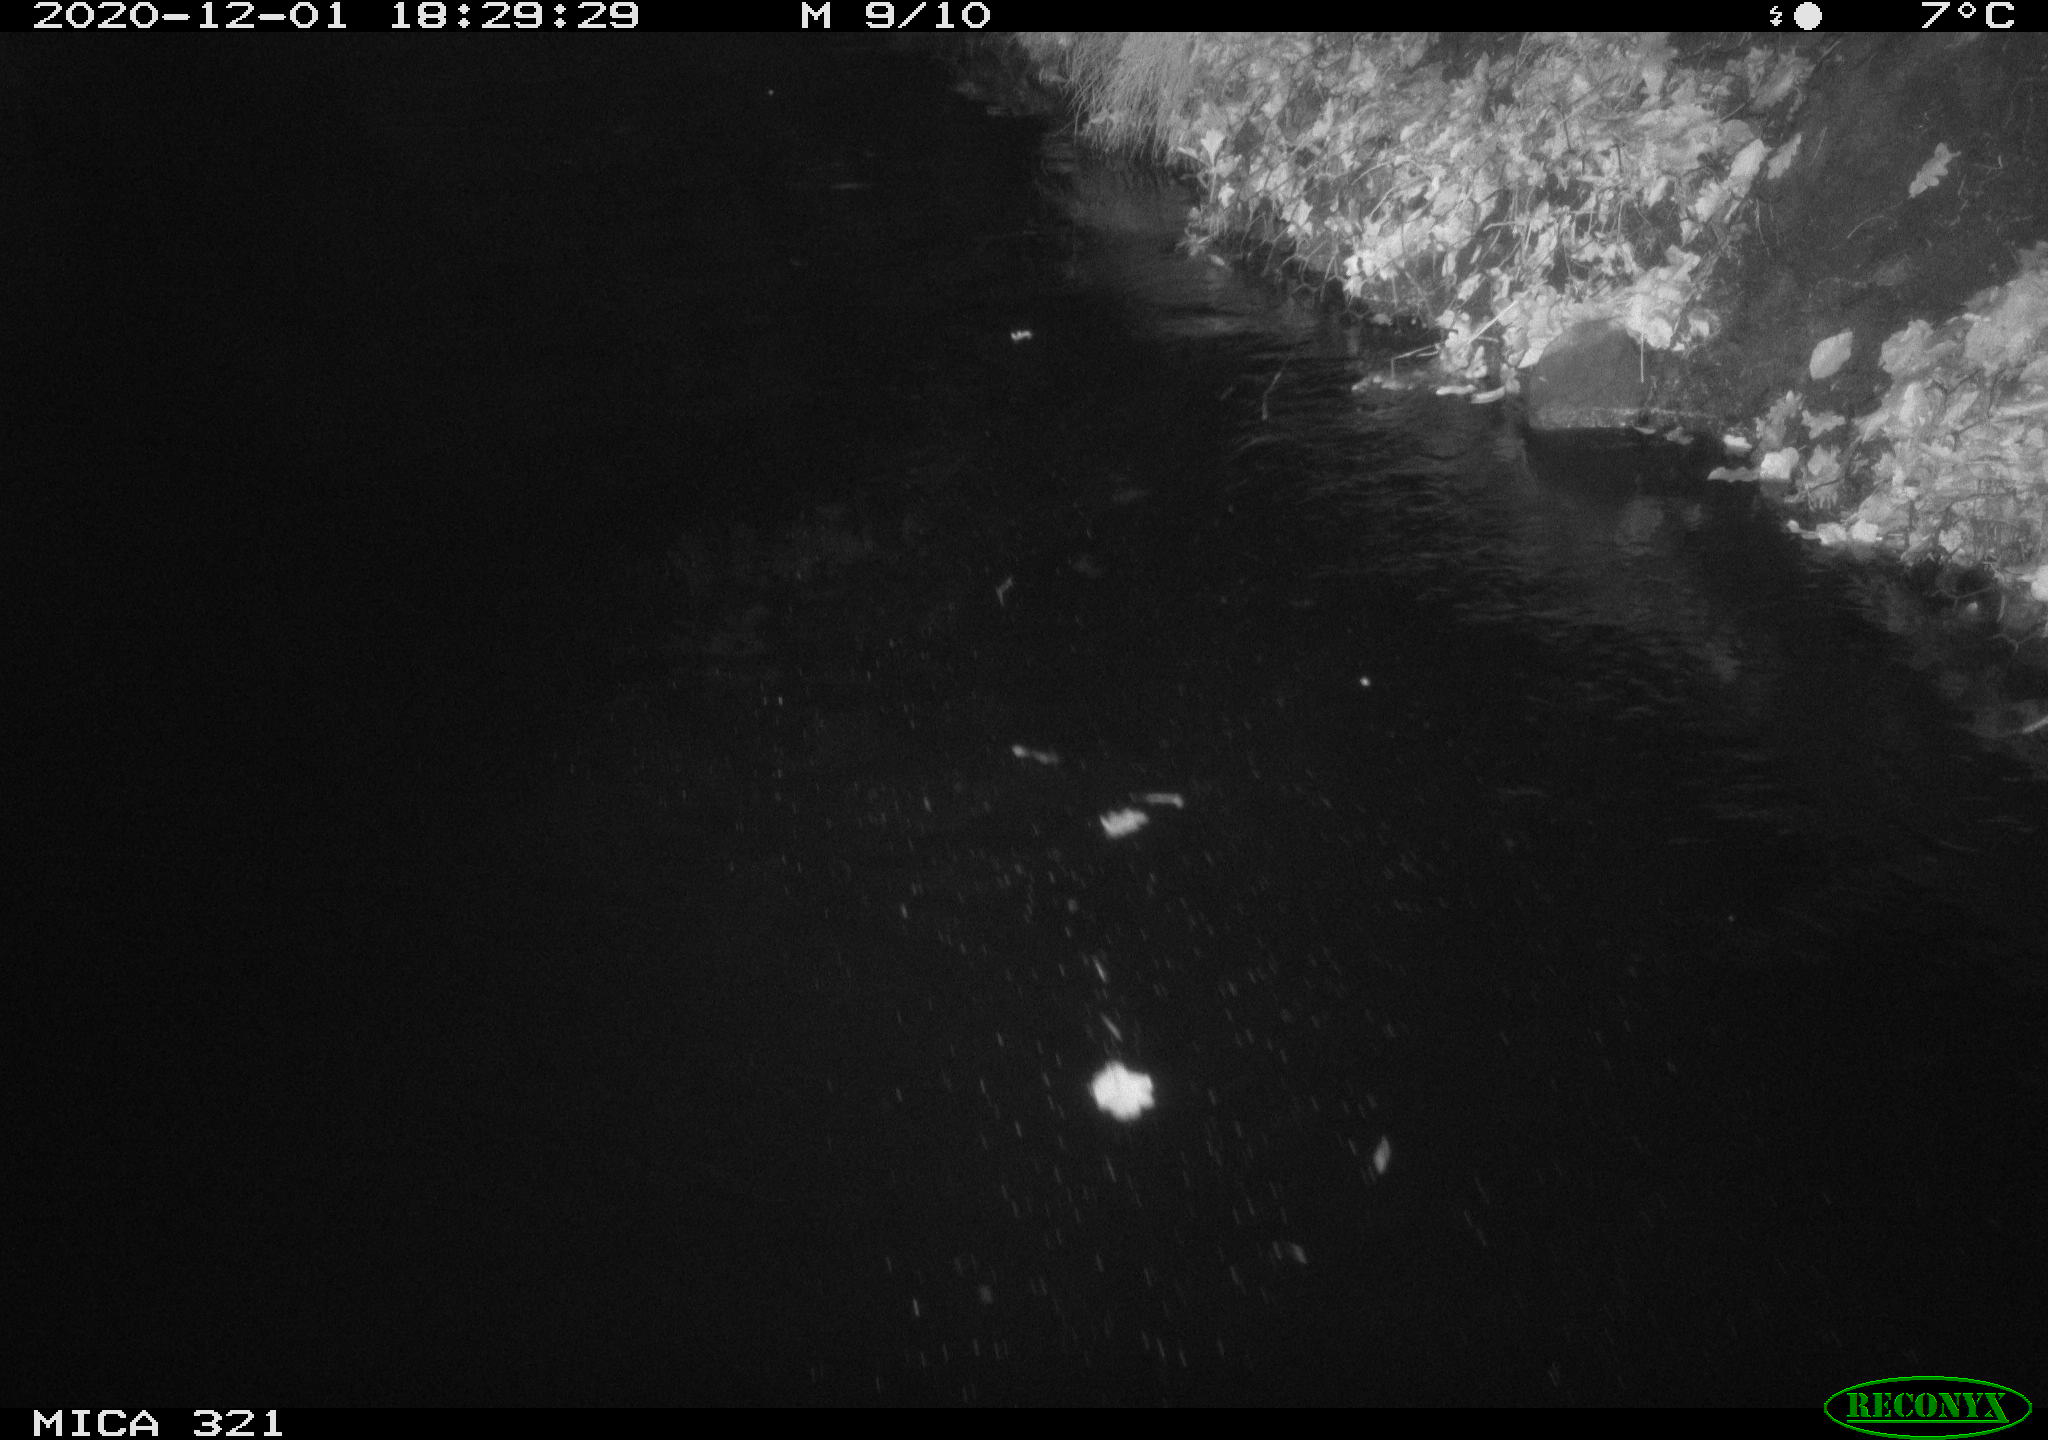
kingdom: Animalia
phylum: Chordata
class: Aves
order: Anseriformes
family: Anatidae
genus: Anas
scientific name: Anas platyrhynchos
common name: Mallard
